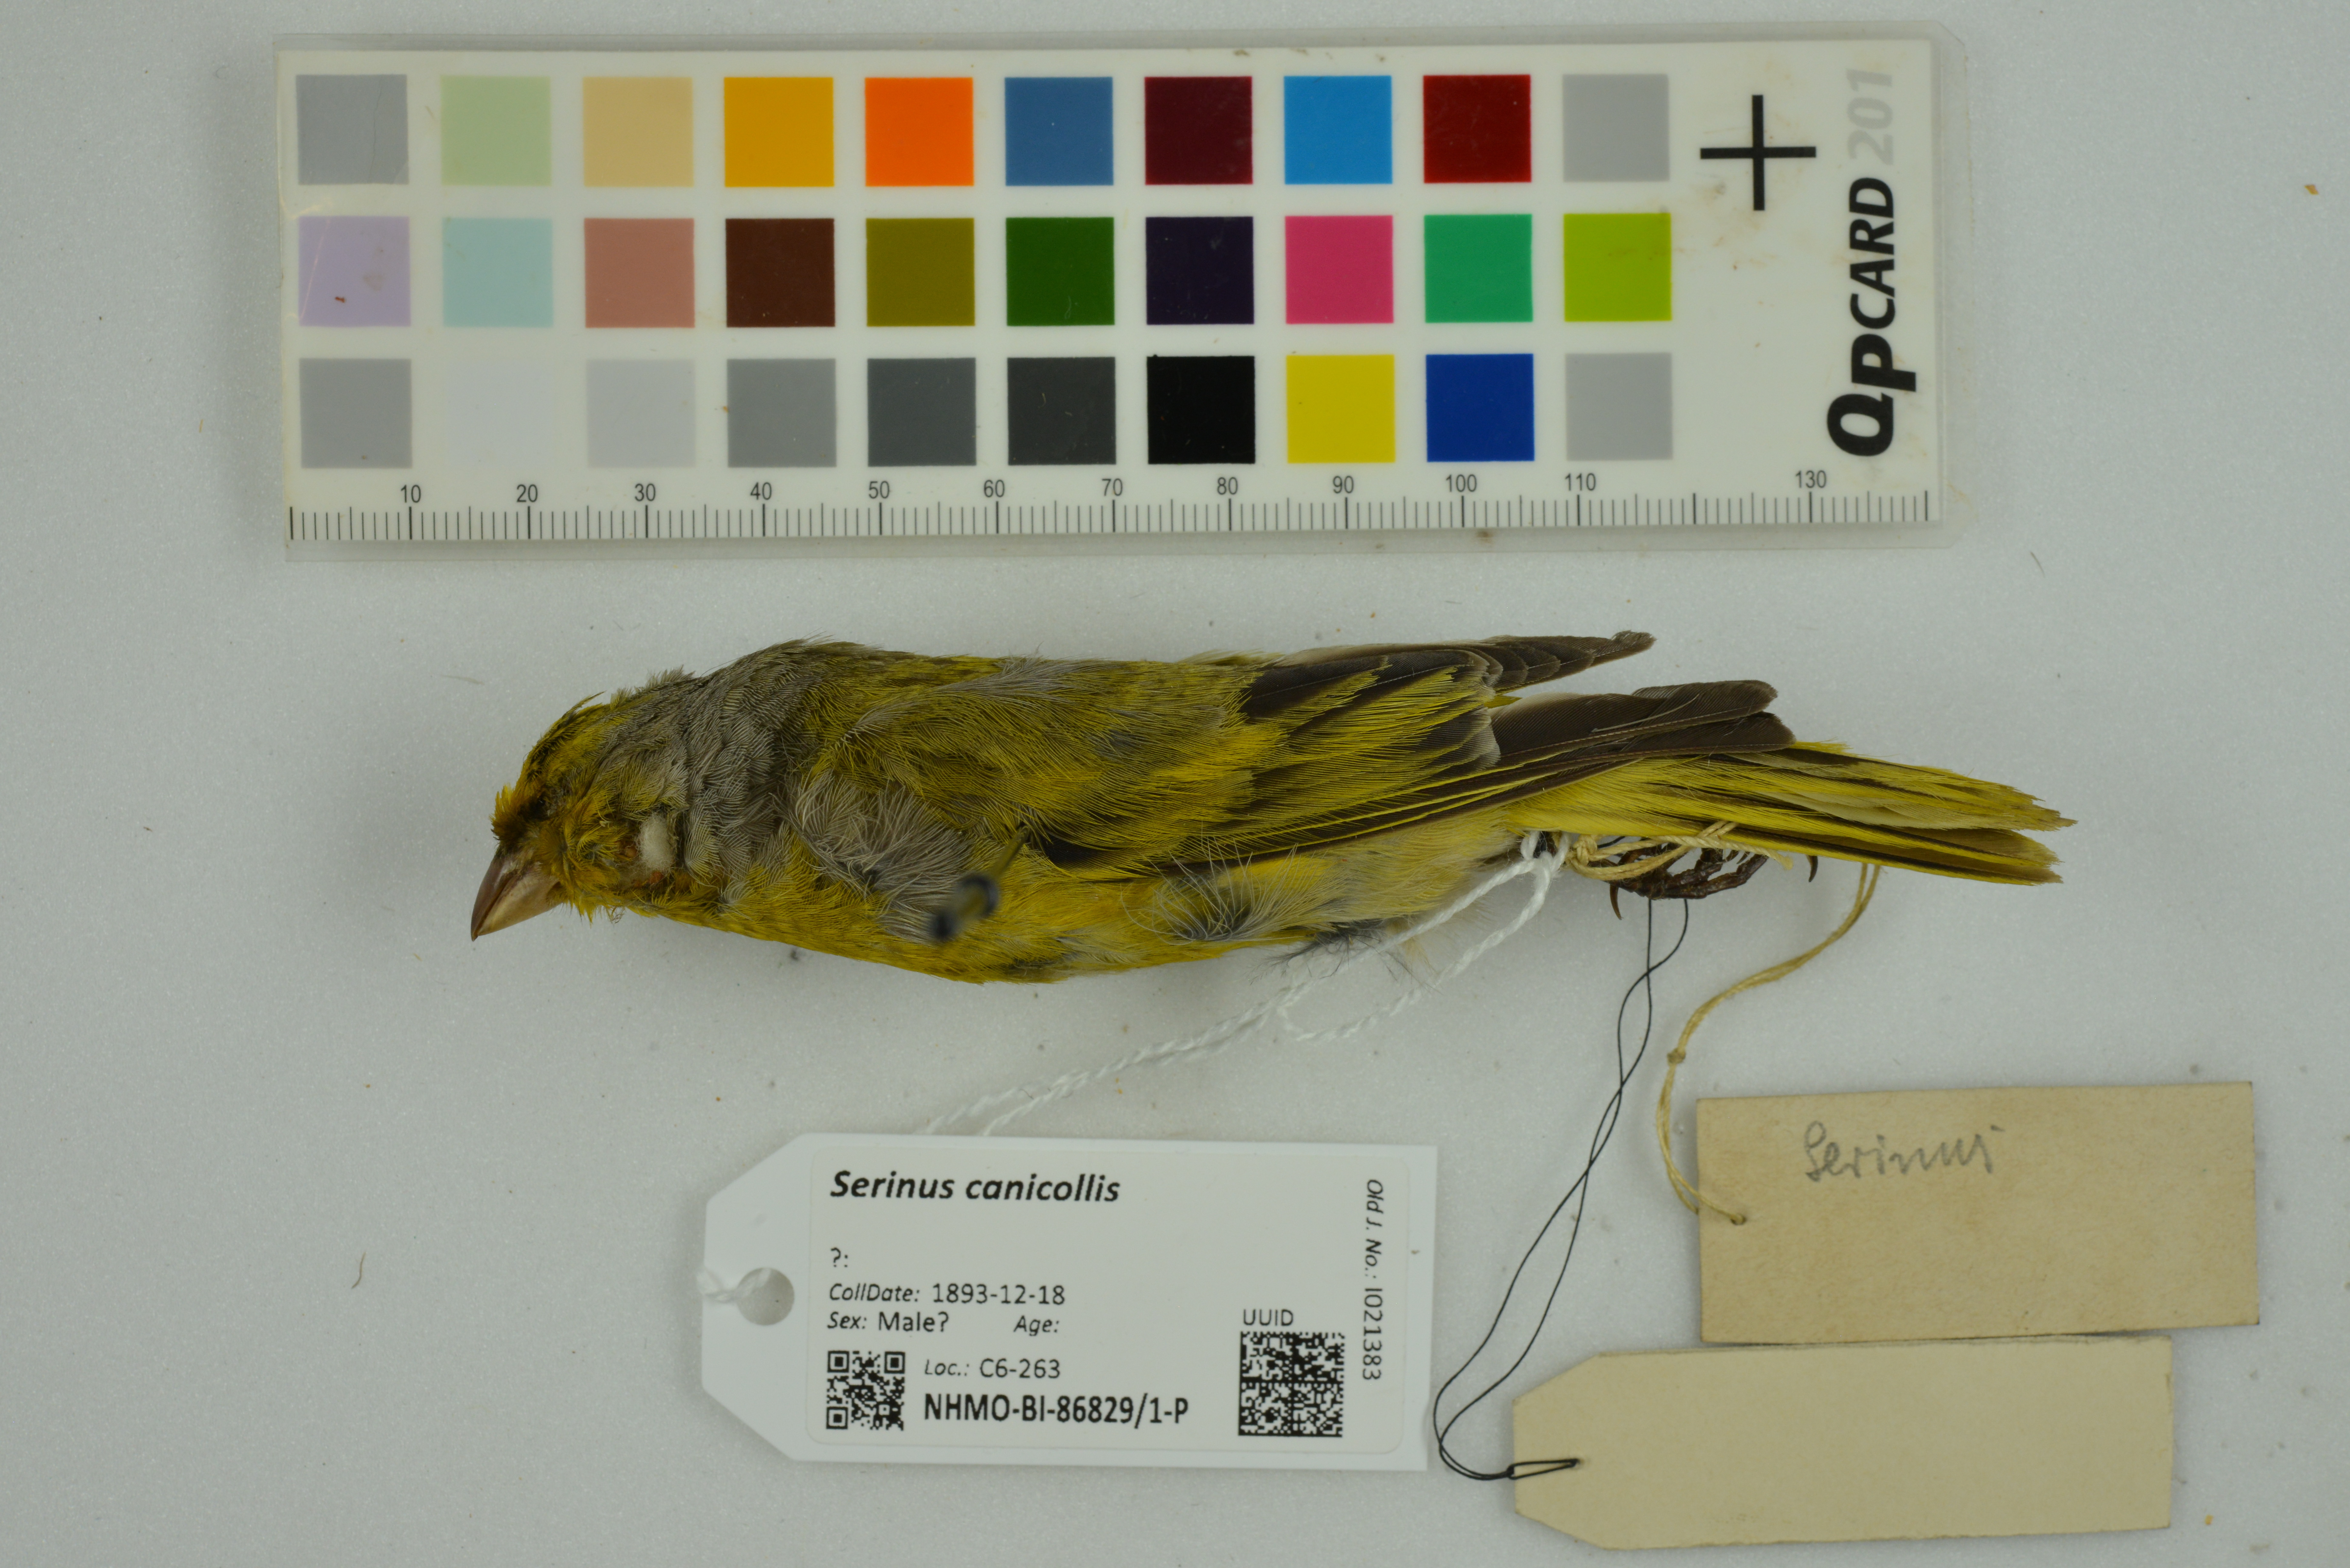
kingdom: Animalia
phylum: Chordata
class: Aves
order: Passeriformes
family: Fringillidae
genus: Serinus
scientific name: Serinus canicollis
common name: Cape canary
